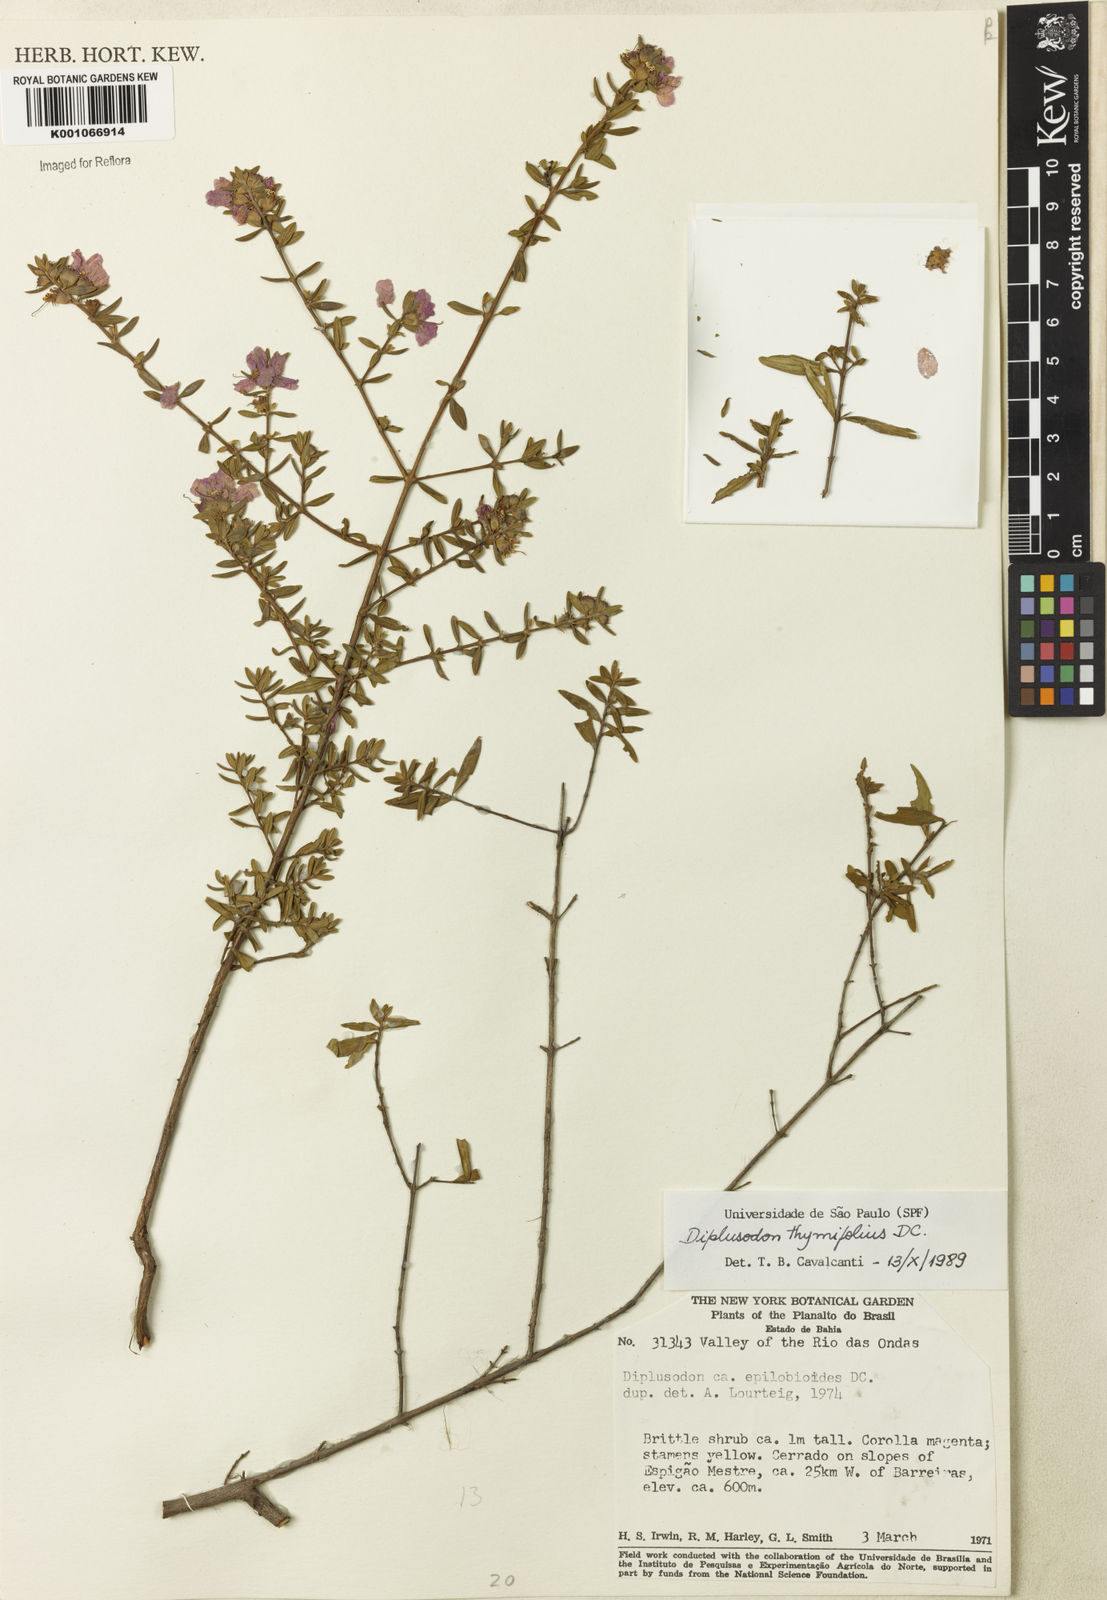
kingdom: Plantae
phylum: Tracheophyta
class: Magnoliopsida
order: Myrtales
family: Lythraceae
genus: Diplusodon
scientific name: Diplusodon thymifolius
